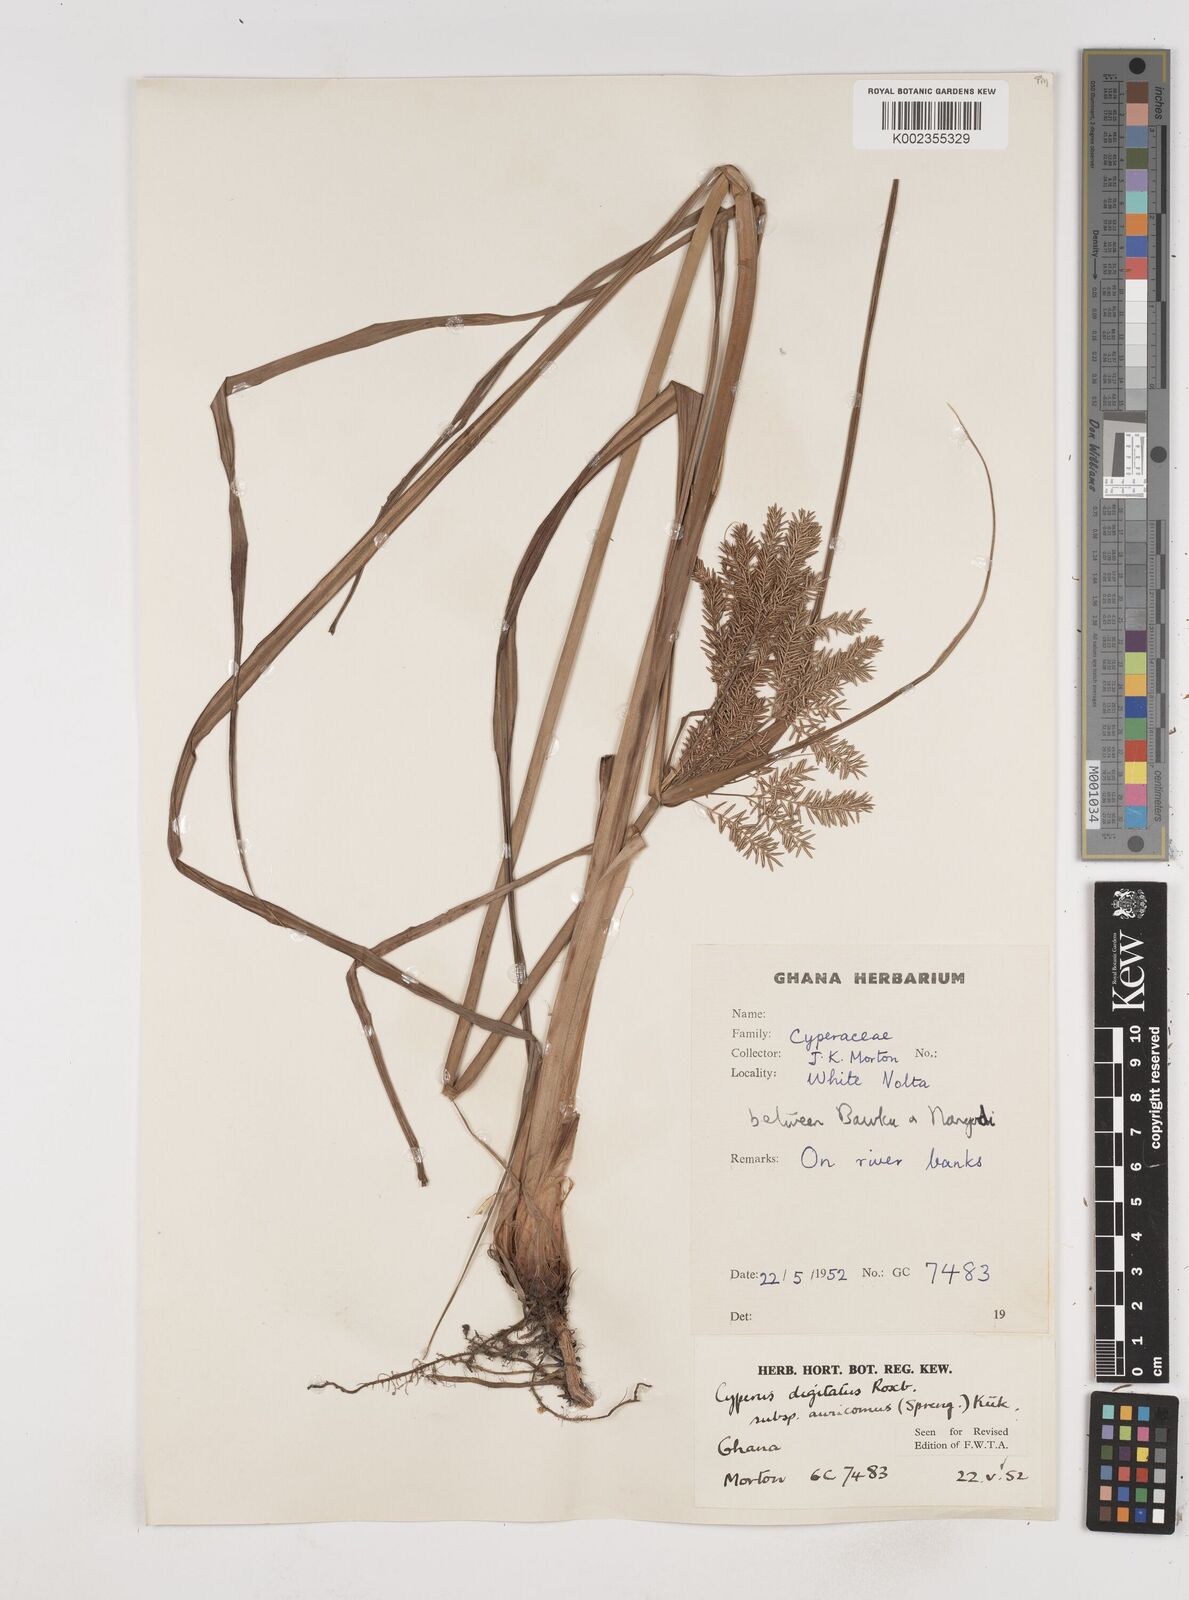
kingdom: Plantae
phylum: Tracheophyta
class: Liliopsida
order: Poales
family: Cyperaceae
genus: Cyperus
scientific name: Cyperus digitatus
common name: Finger flatsedge
